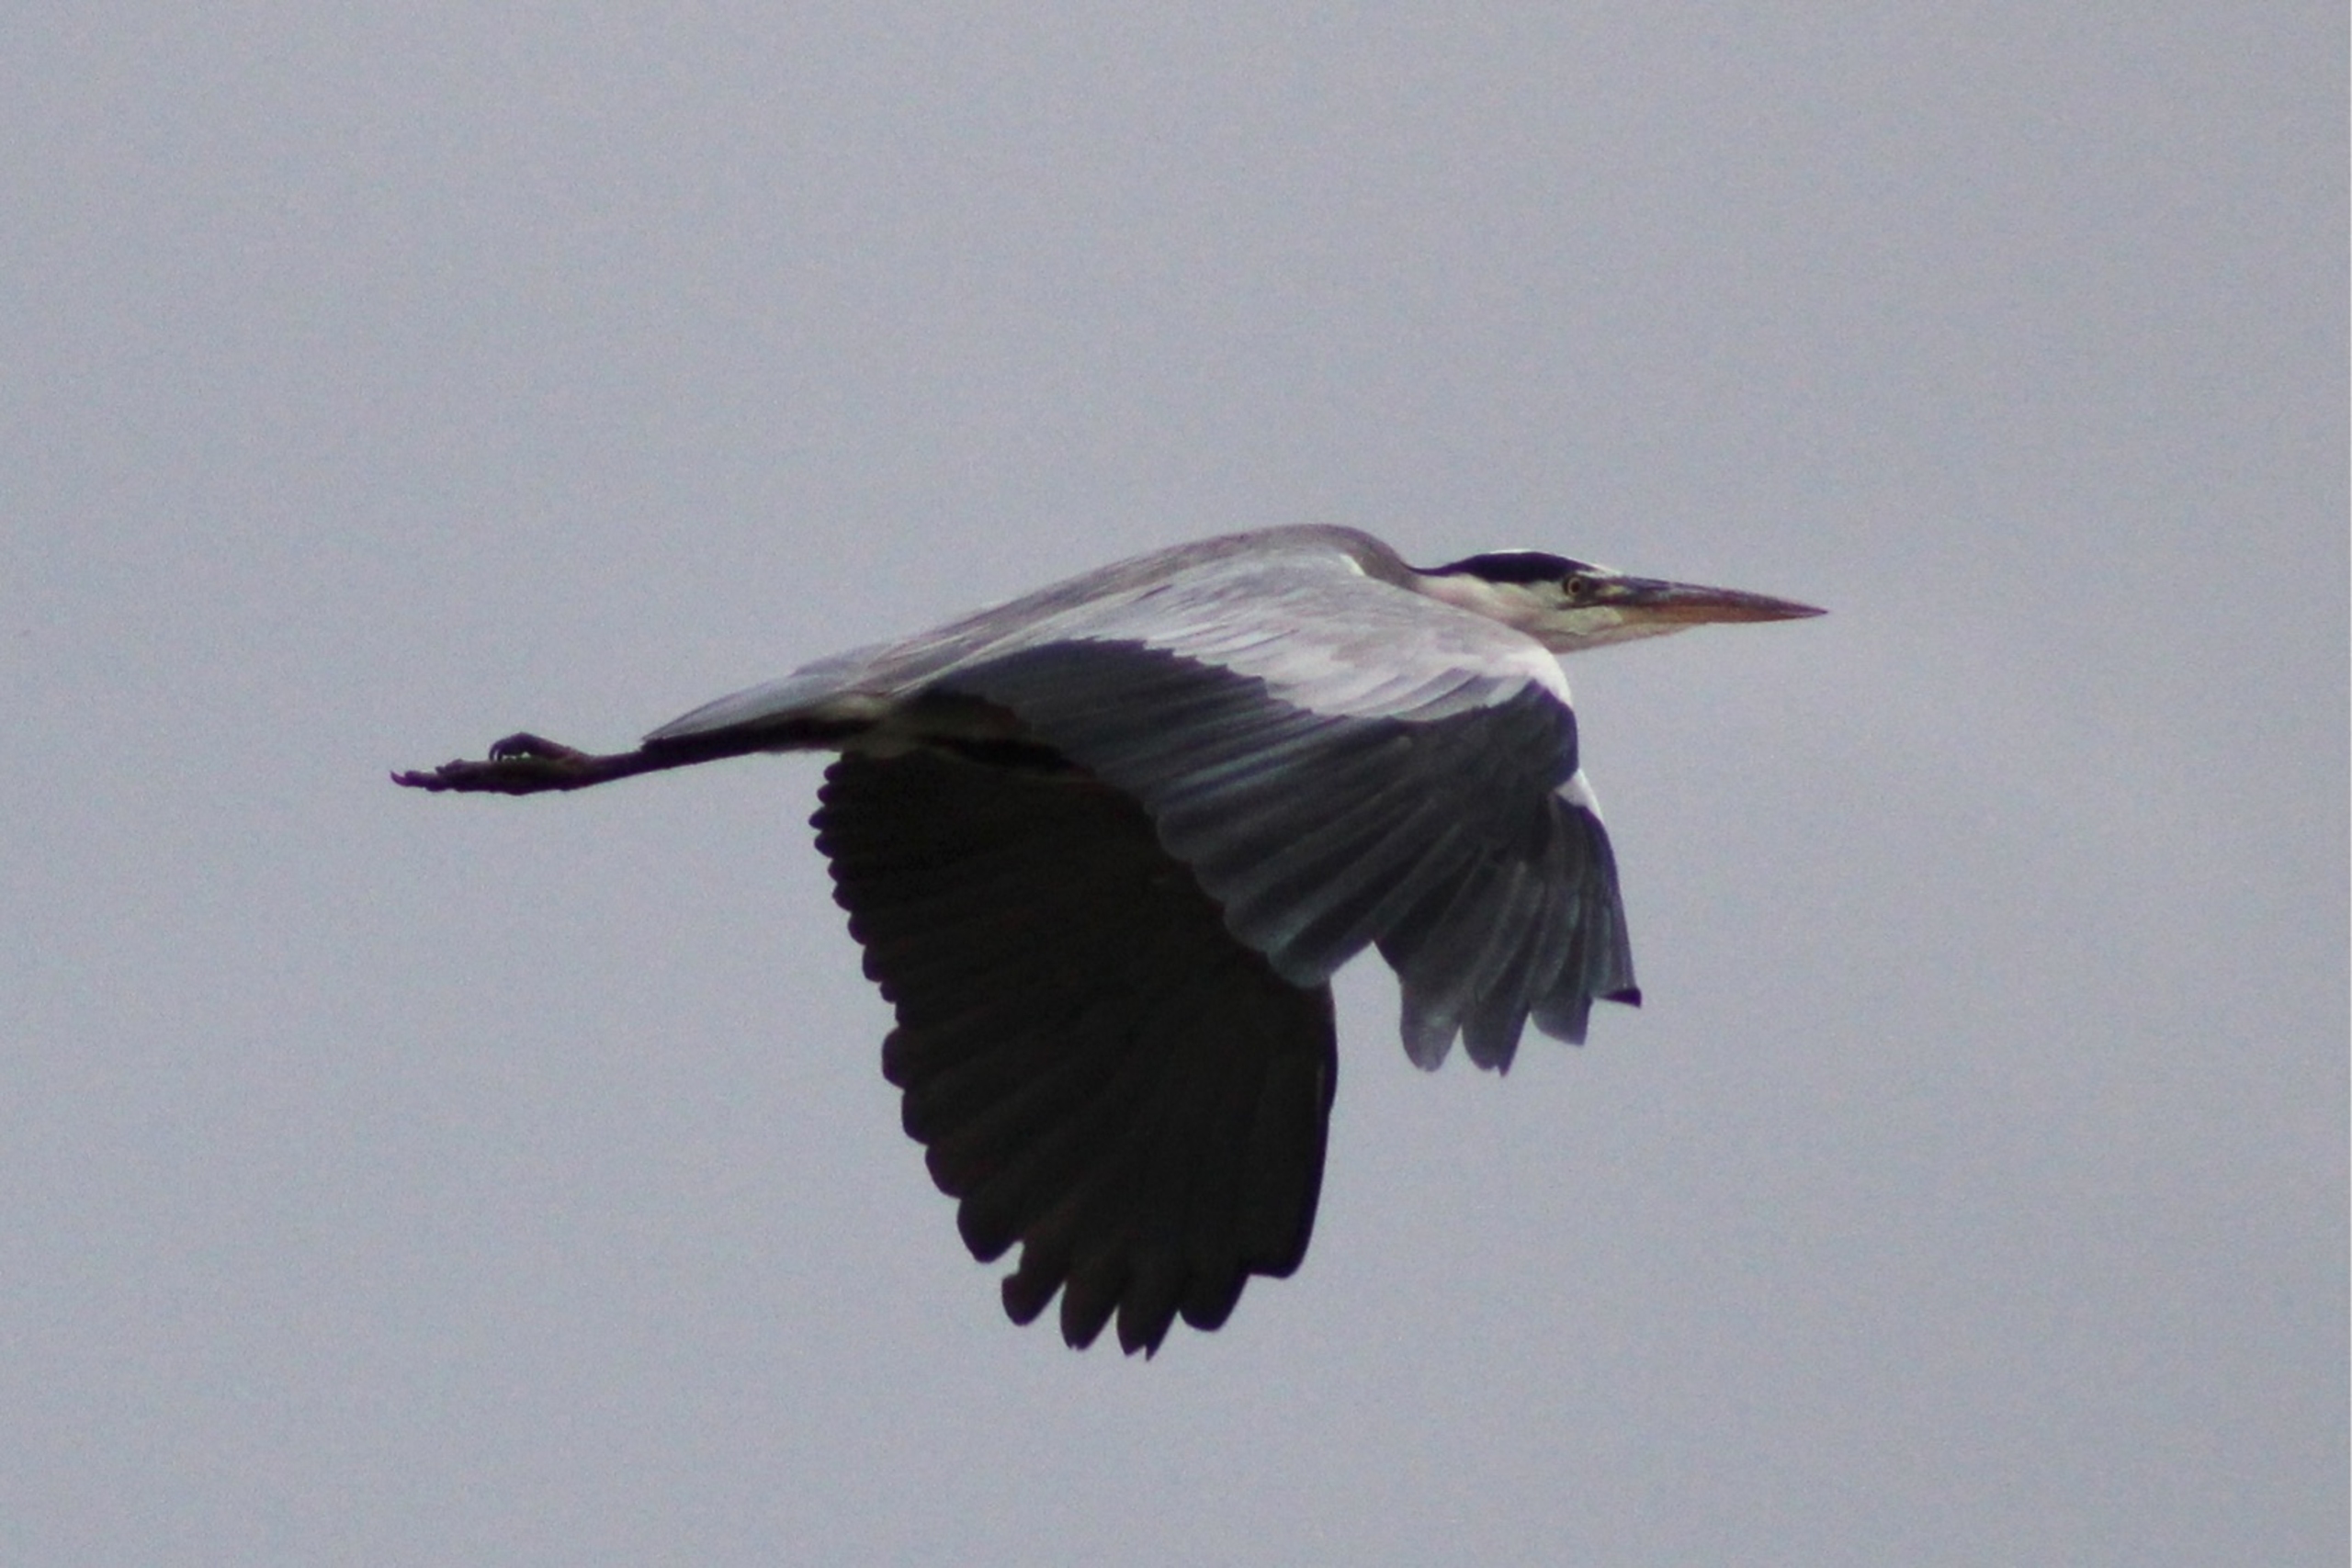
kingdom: Animalia
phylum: Chordata
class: Aves
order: Pelecaniformes
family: Ardeidae
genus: Ardea
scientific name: Ardea cinerea
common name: Fiskehejre
